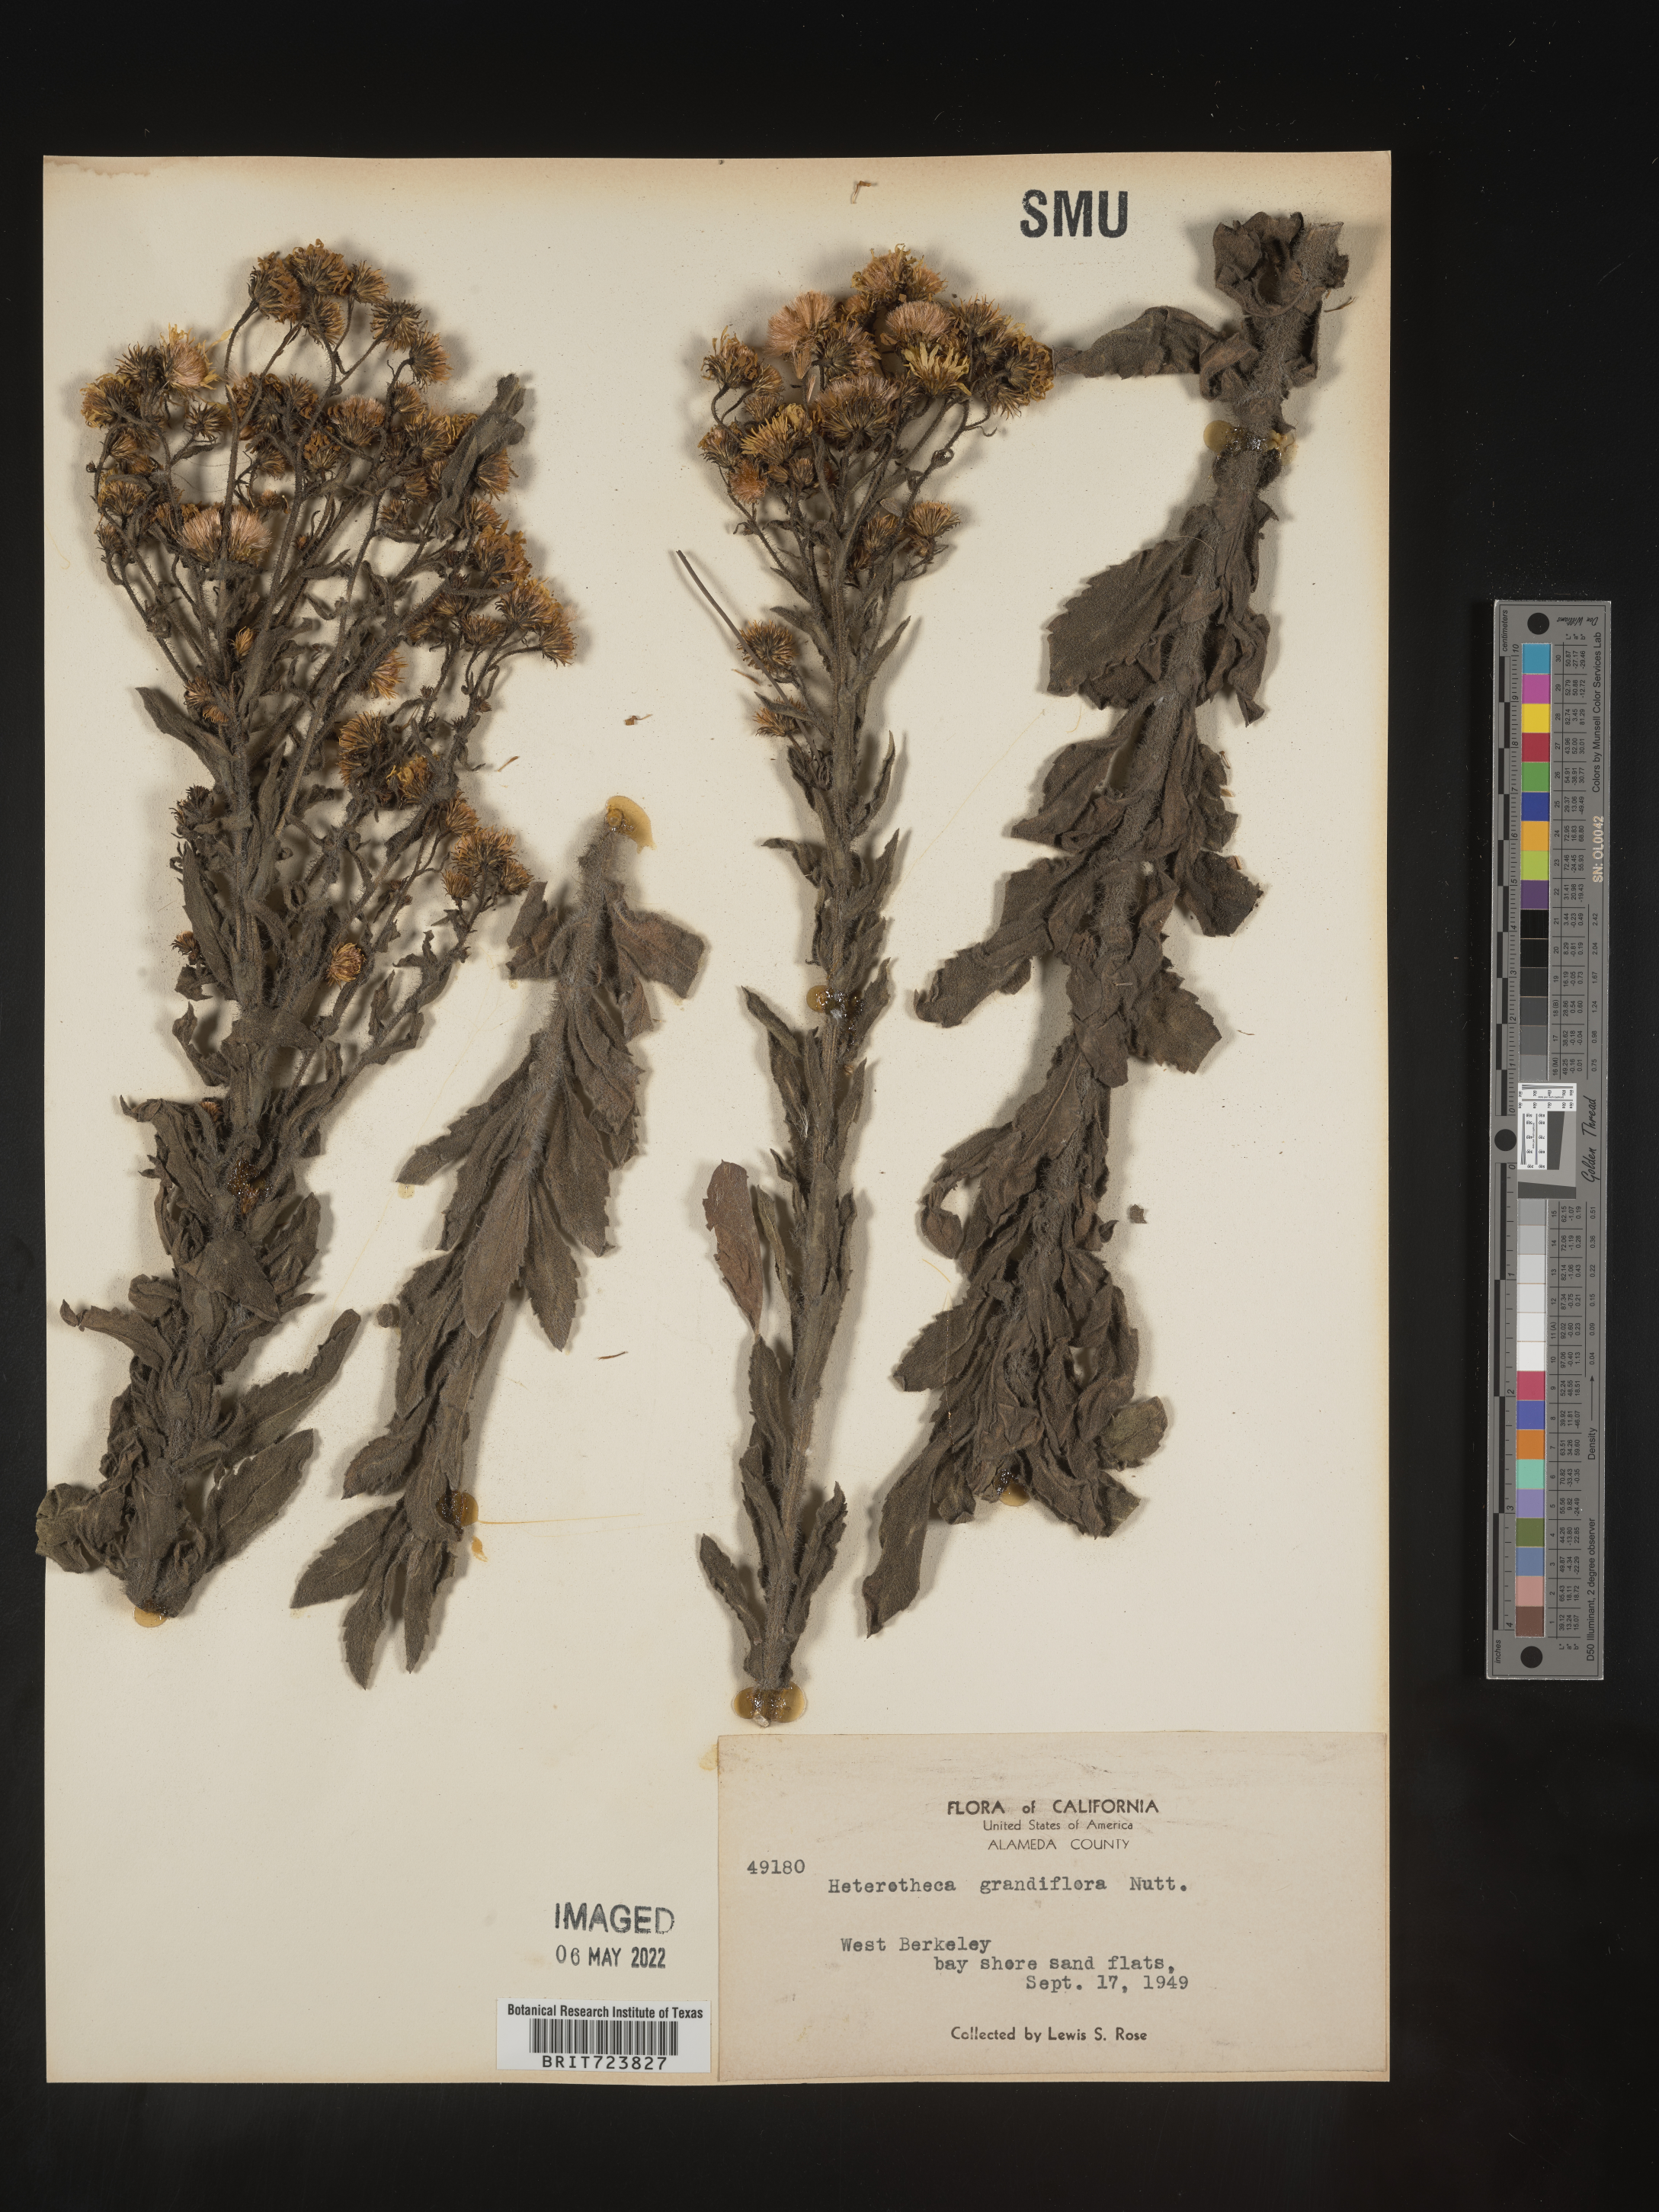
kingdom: Plantae
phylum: Tracheophyta
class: Magnoliopsida
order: Asterales
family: Asteraceae
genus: Heterotheca
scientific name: Heterotheca grandiflora
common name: Telegraphweed
